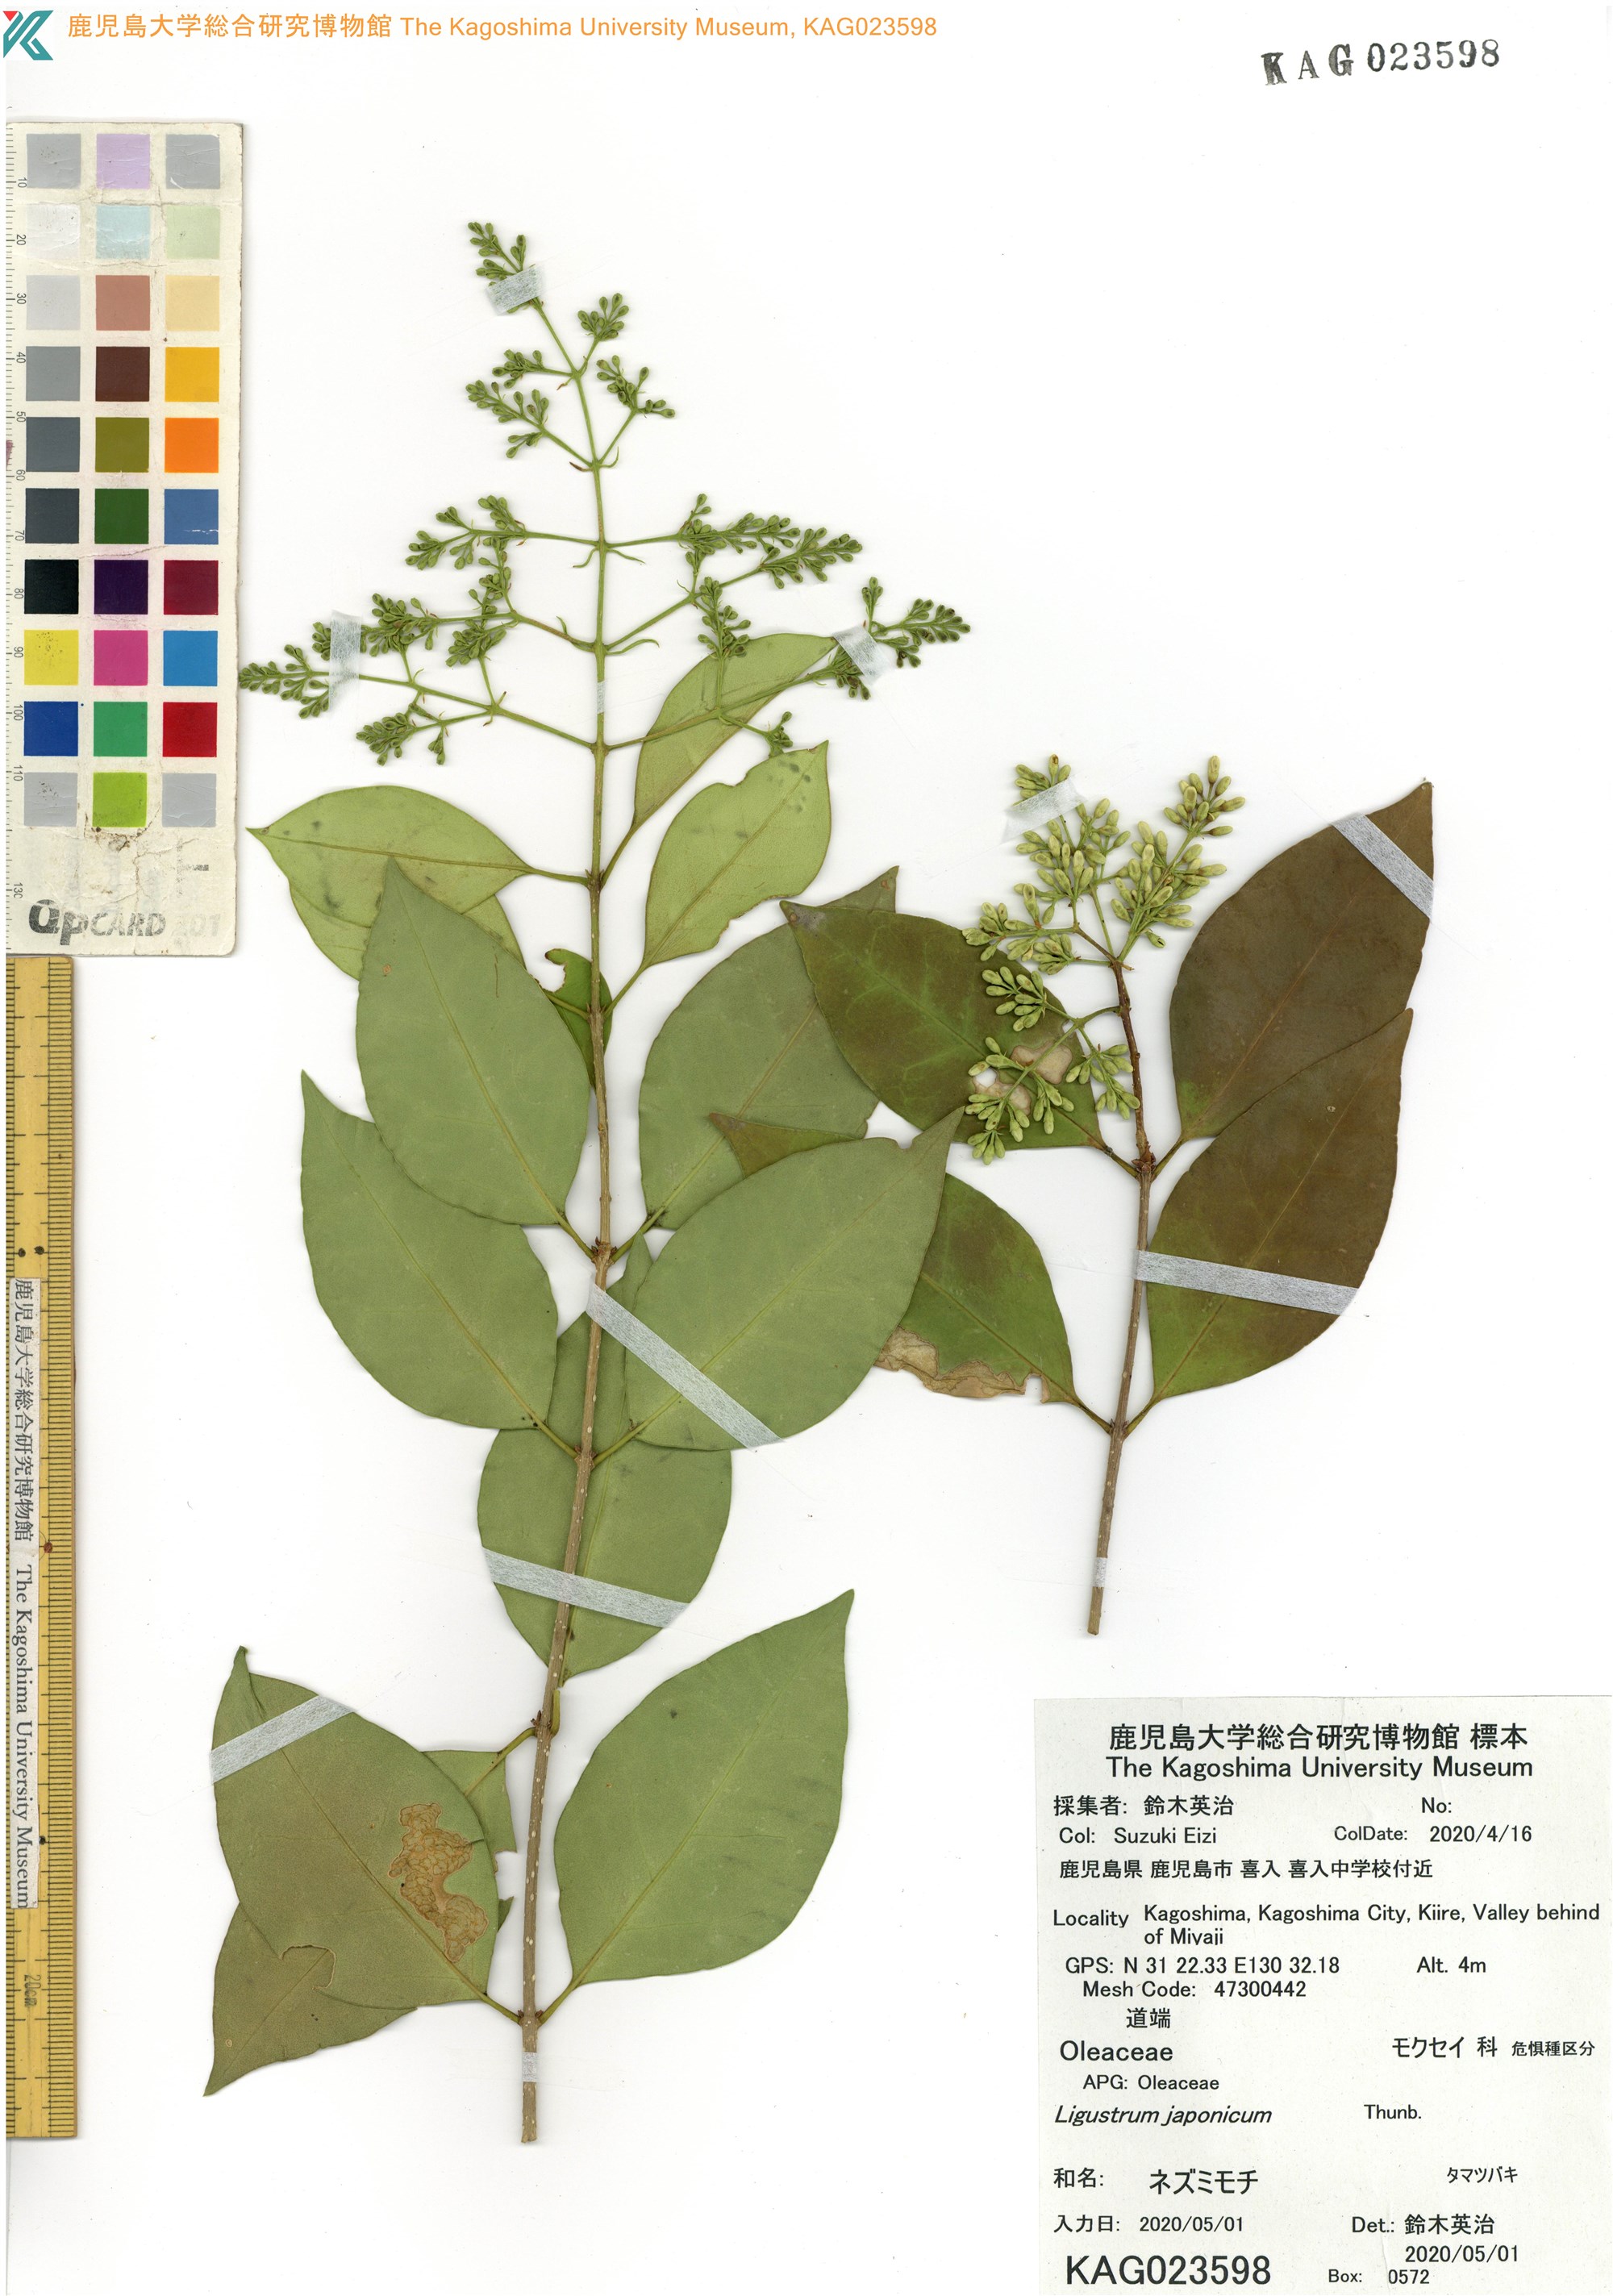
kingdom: Plantae
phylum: Tracheophyta
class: Magnoliopsida
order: Lamiales
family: Oleaceae
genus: Ligustrum
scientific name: Ligustrum japonicum
